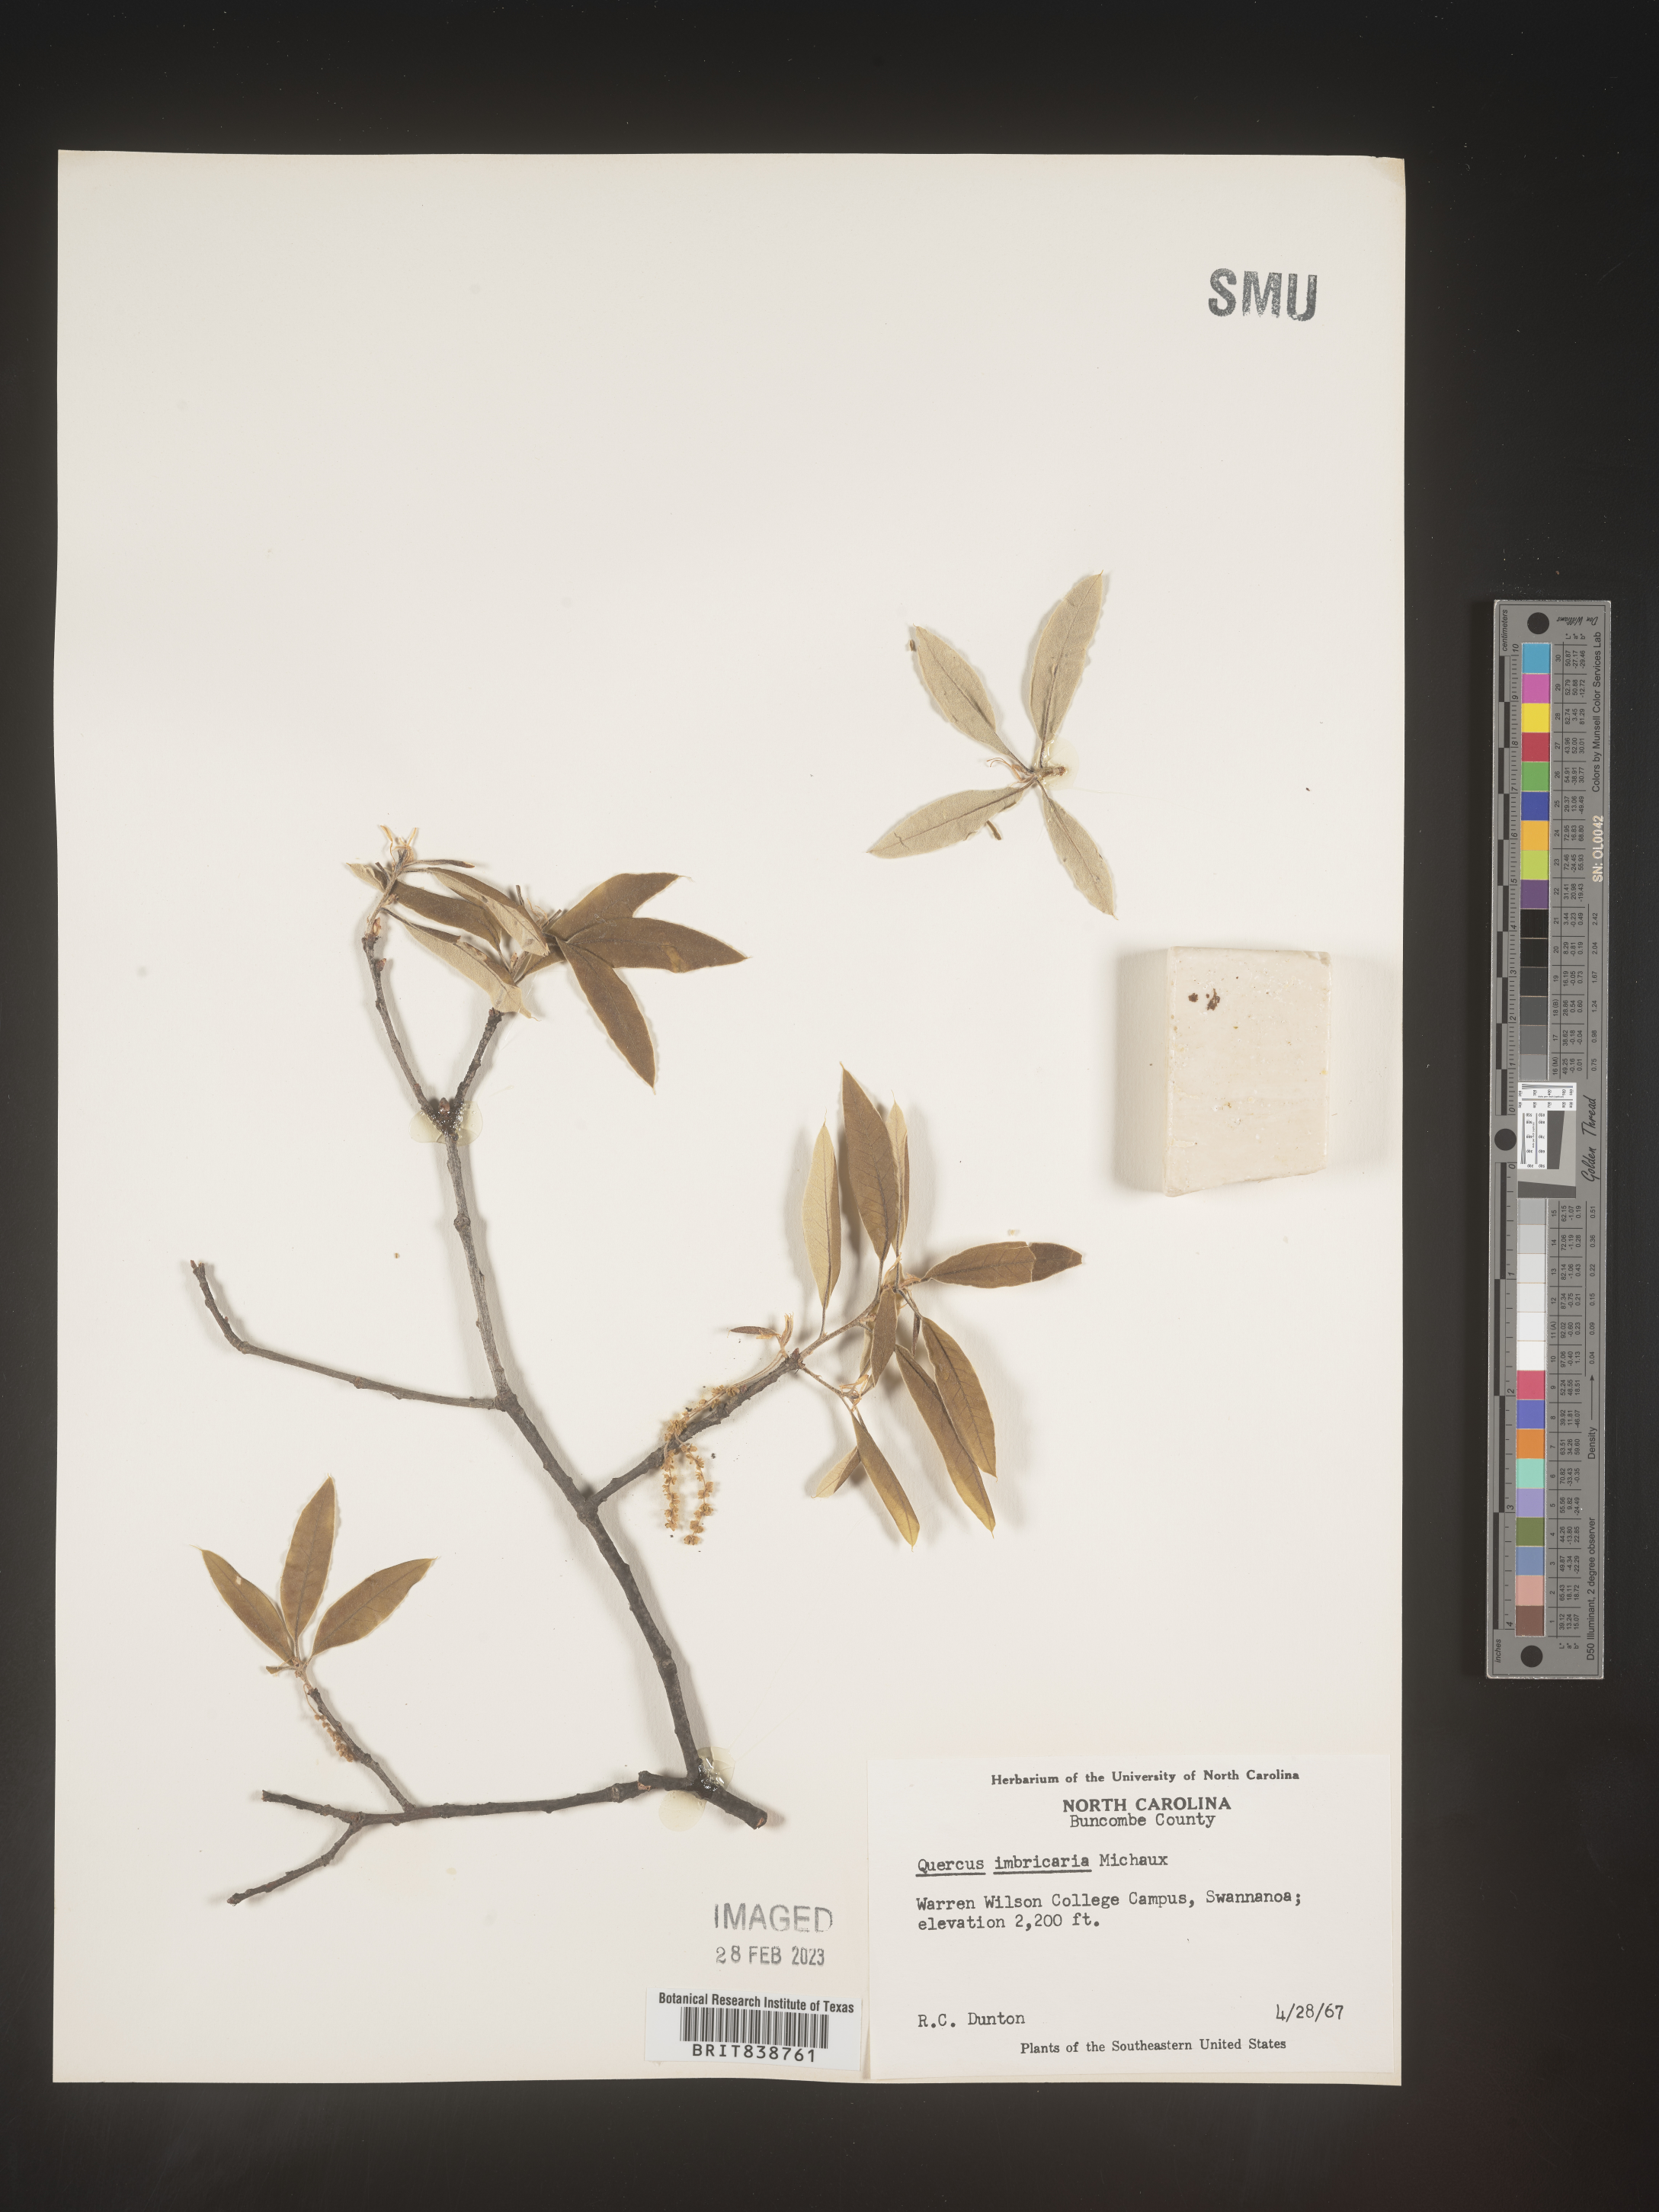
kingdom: Plantae
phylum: Tracheophyta
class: Magnoliopsida
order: Fagales
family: Fagaceae
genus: Quercus
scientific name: Quercus imbricaria
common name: Shingle oak
